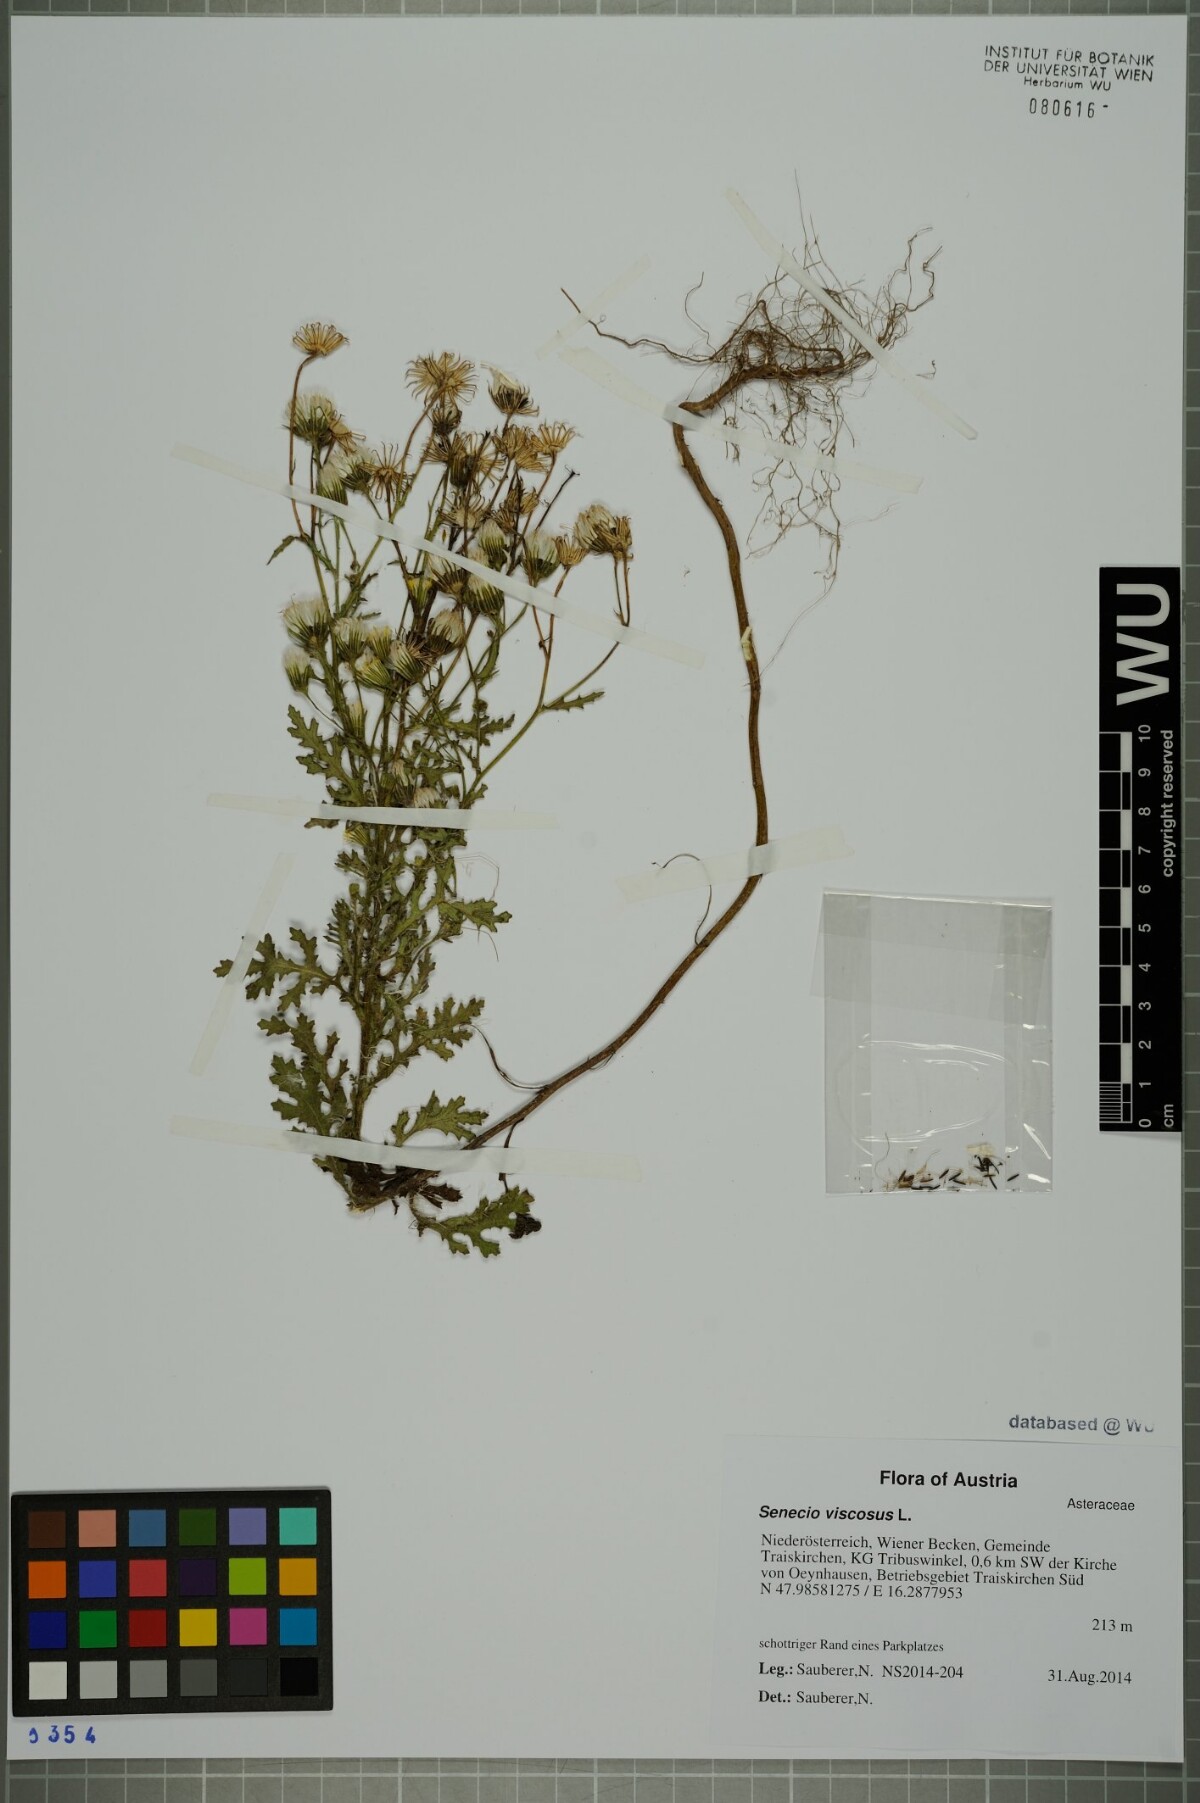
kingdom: Plantae
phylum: Tracheophyta
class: Magnoliopsida
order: Asterales
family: Asteraceae
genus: Senecio
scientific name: Senecio viscosus
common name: Sticky groundsel
